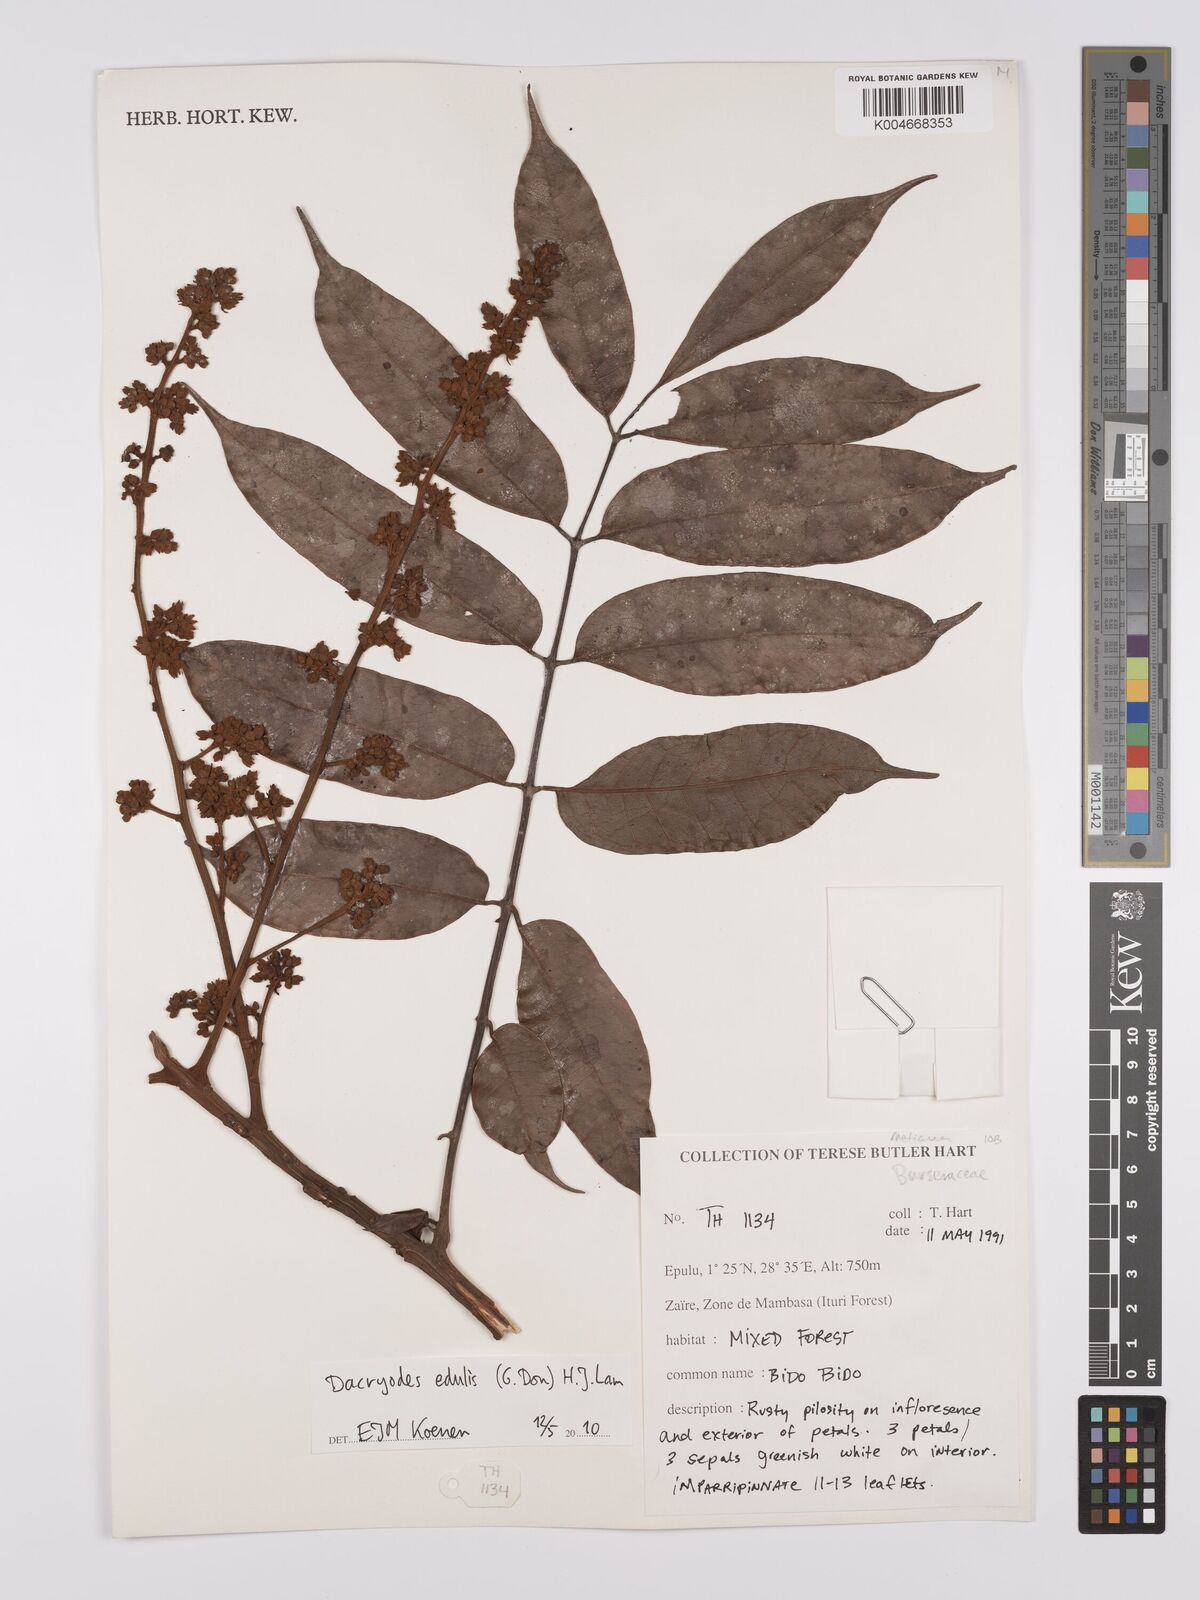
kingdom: Plantae
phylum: Tracheophyta
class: Magnoliopsida
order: Sapindales
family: Burseraceae
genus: Pachylobus
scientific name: Pachylobus edulis
